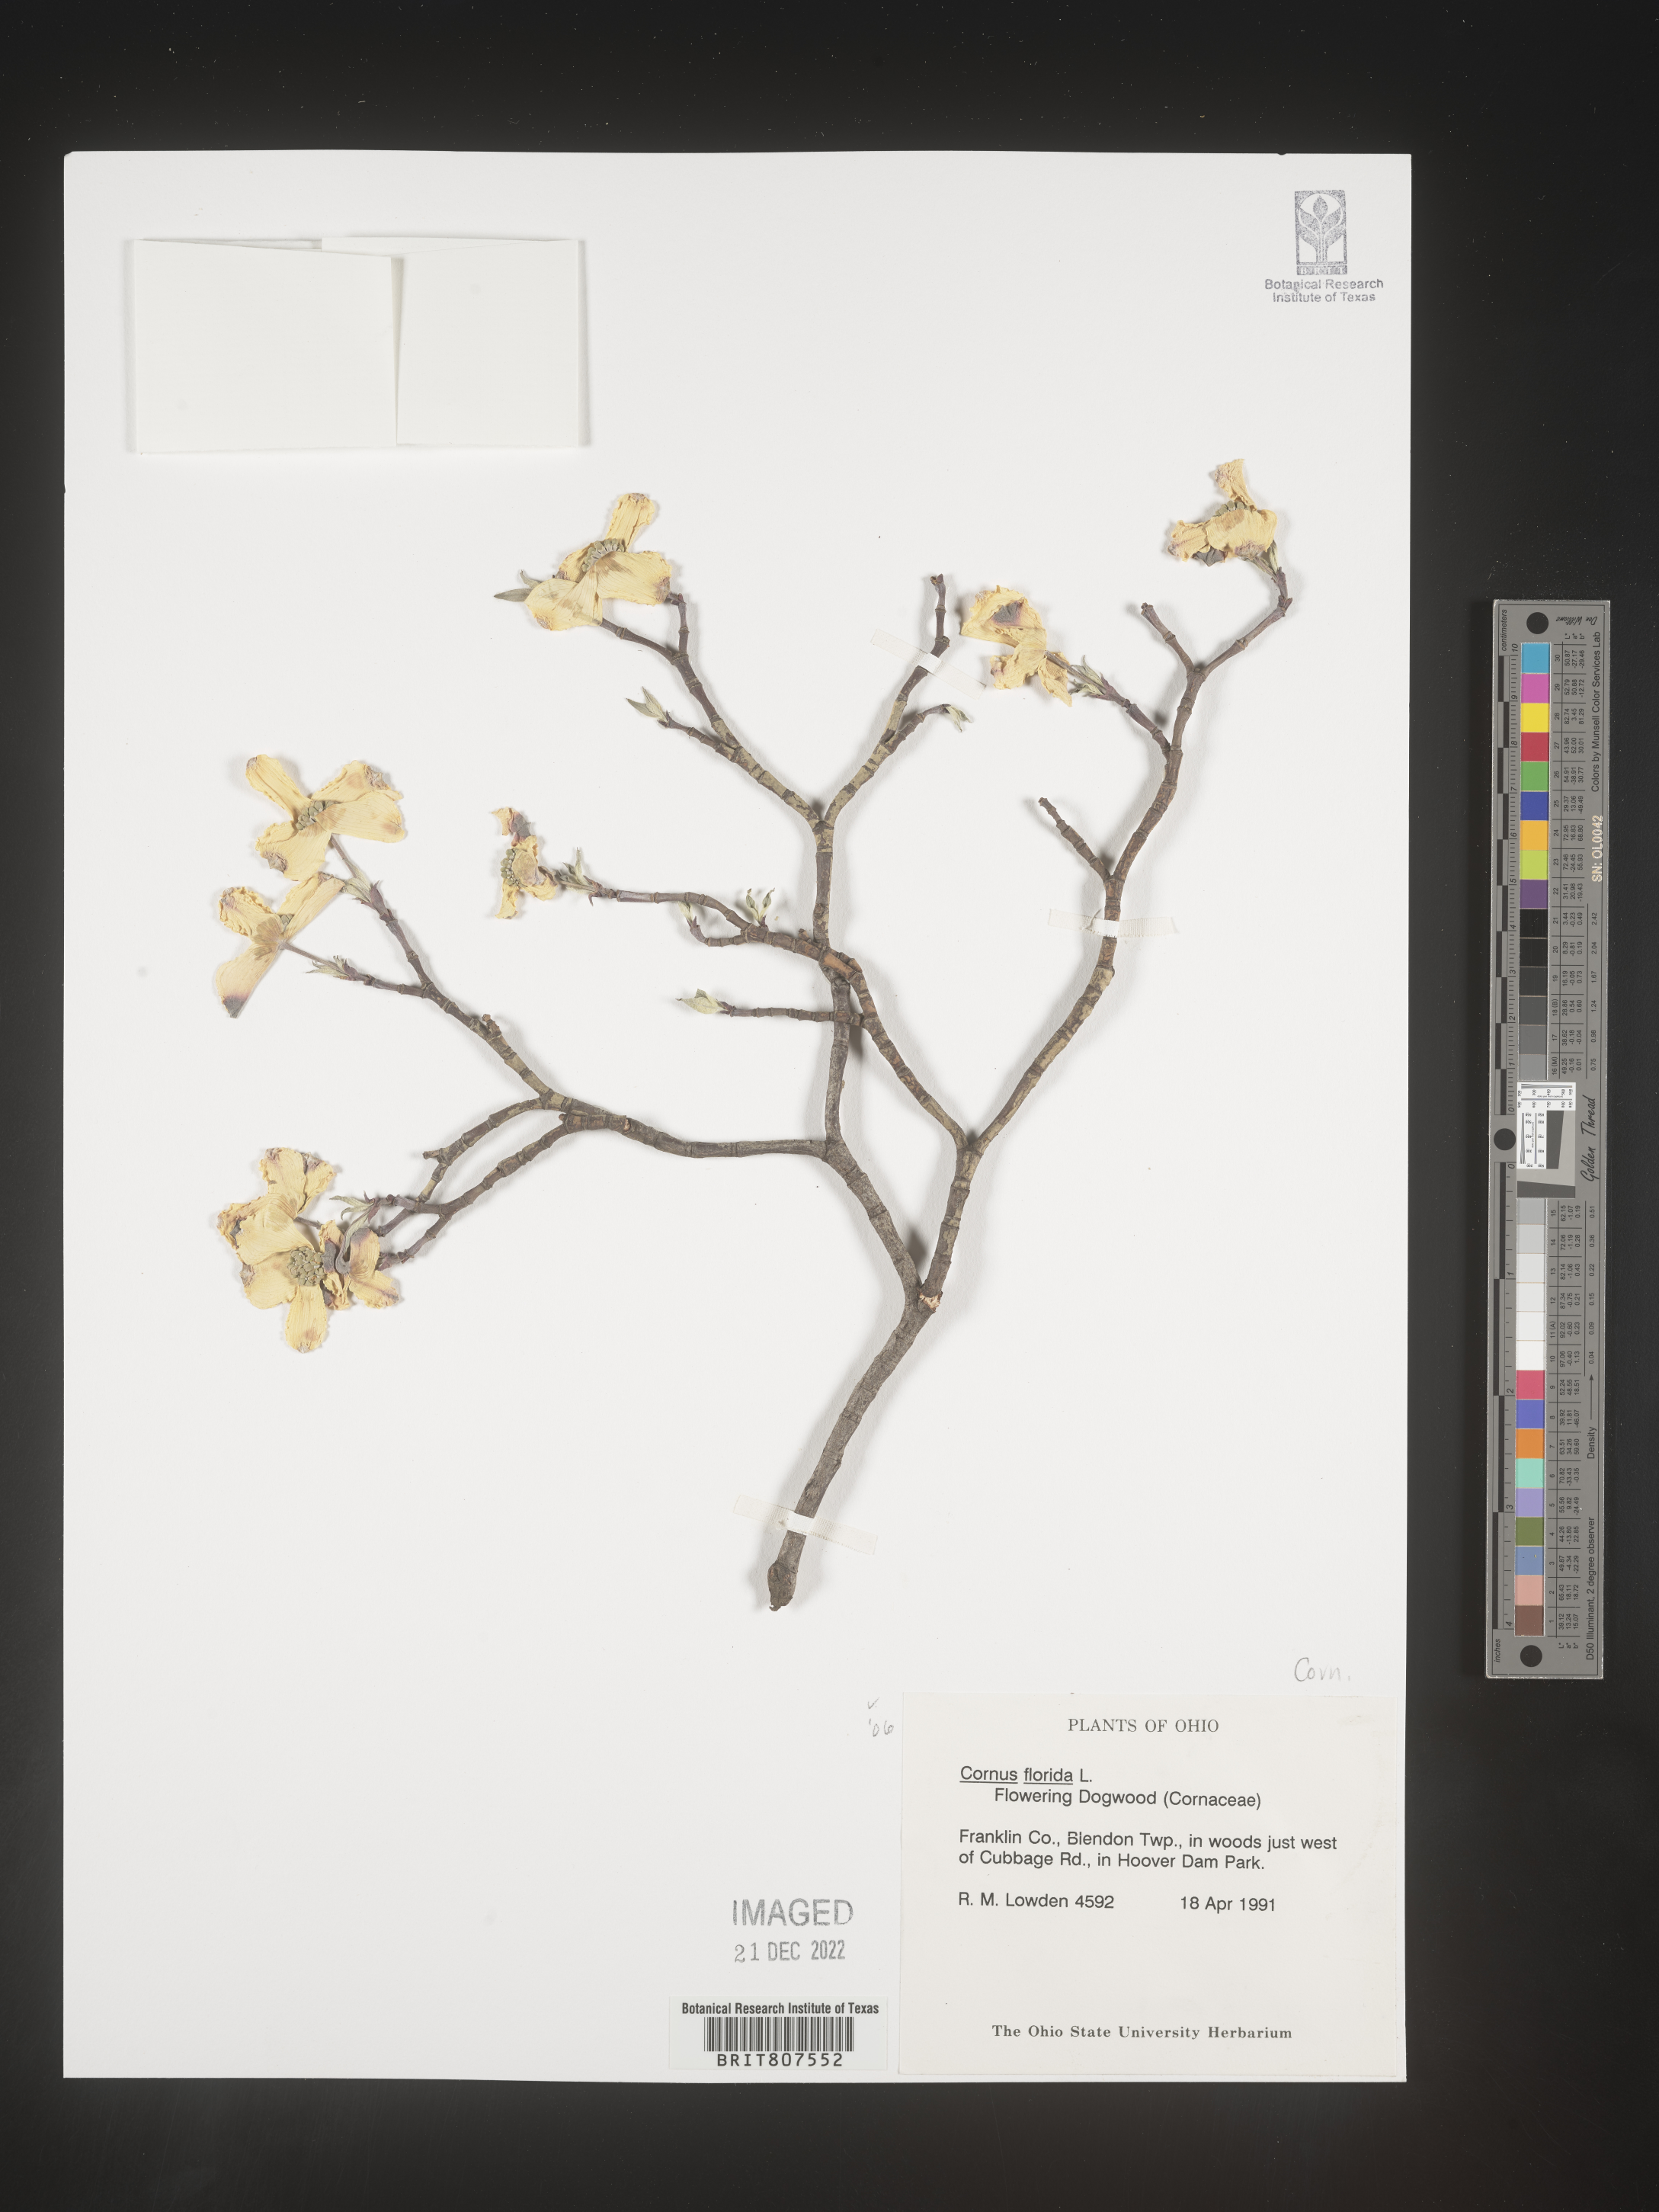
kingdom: Plantae
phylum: Tracheophyta
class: Magnoliopsida
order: Cornales
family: Cornaceae
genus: Cornus
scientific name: Cornus florida
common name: Flowering dogwood
